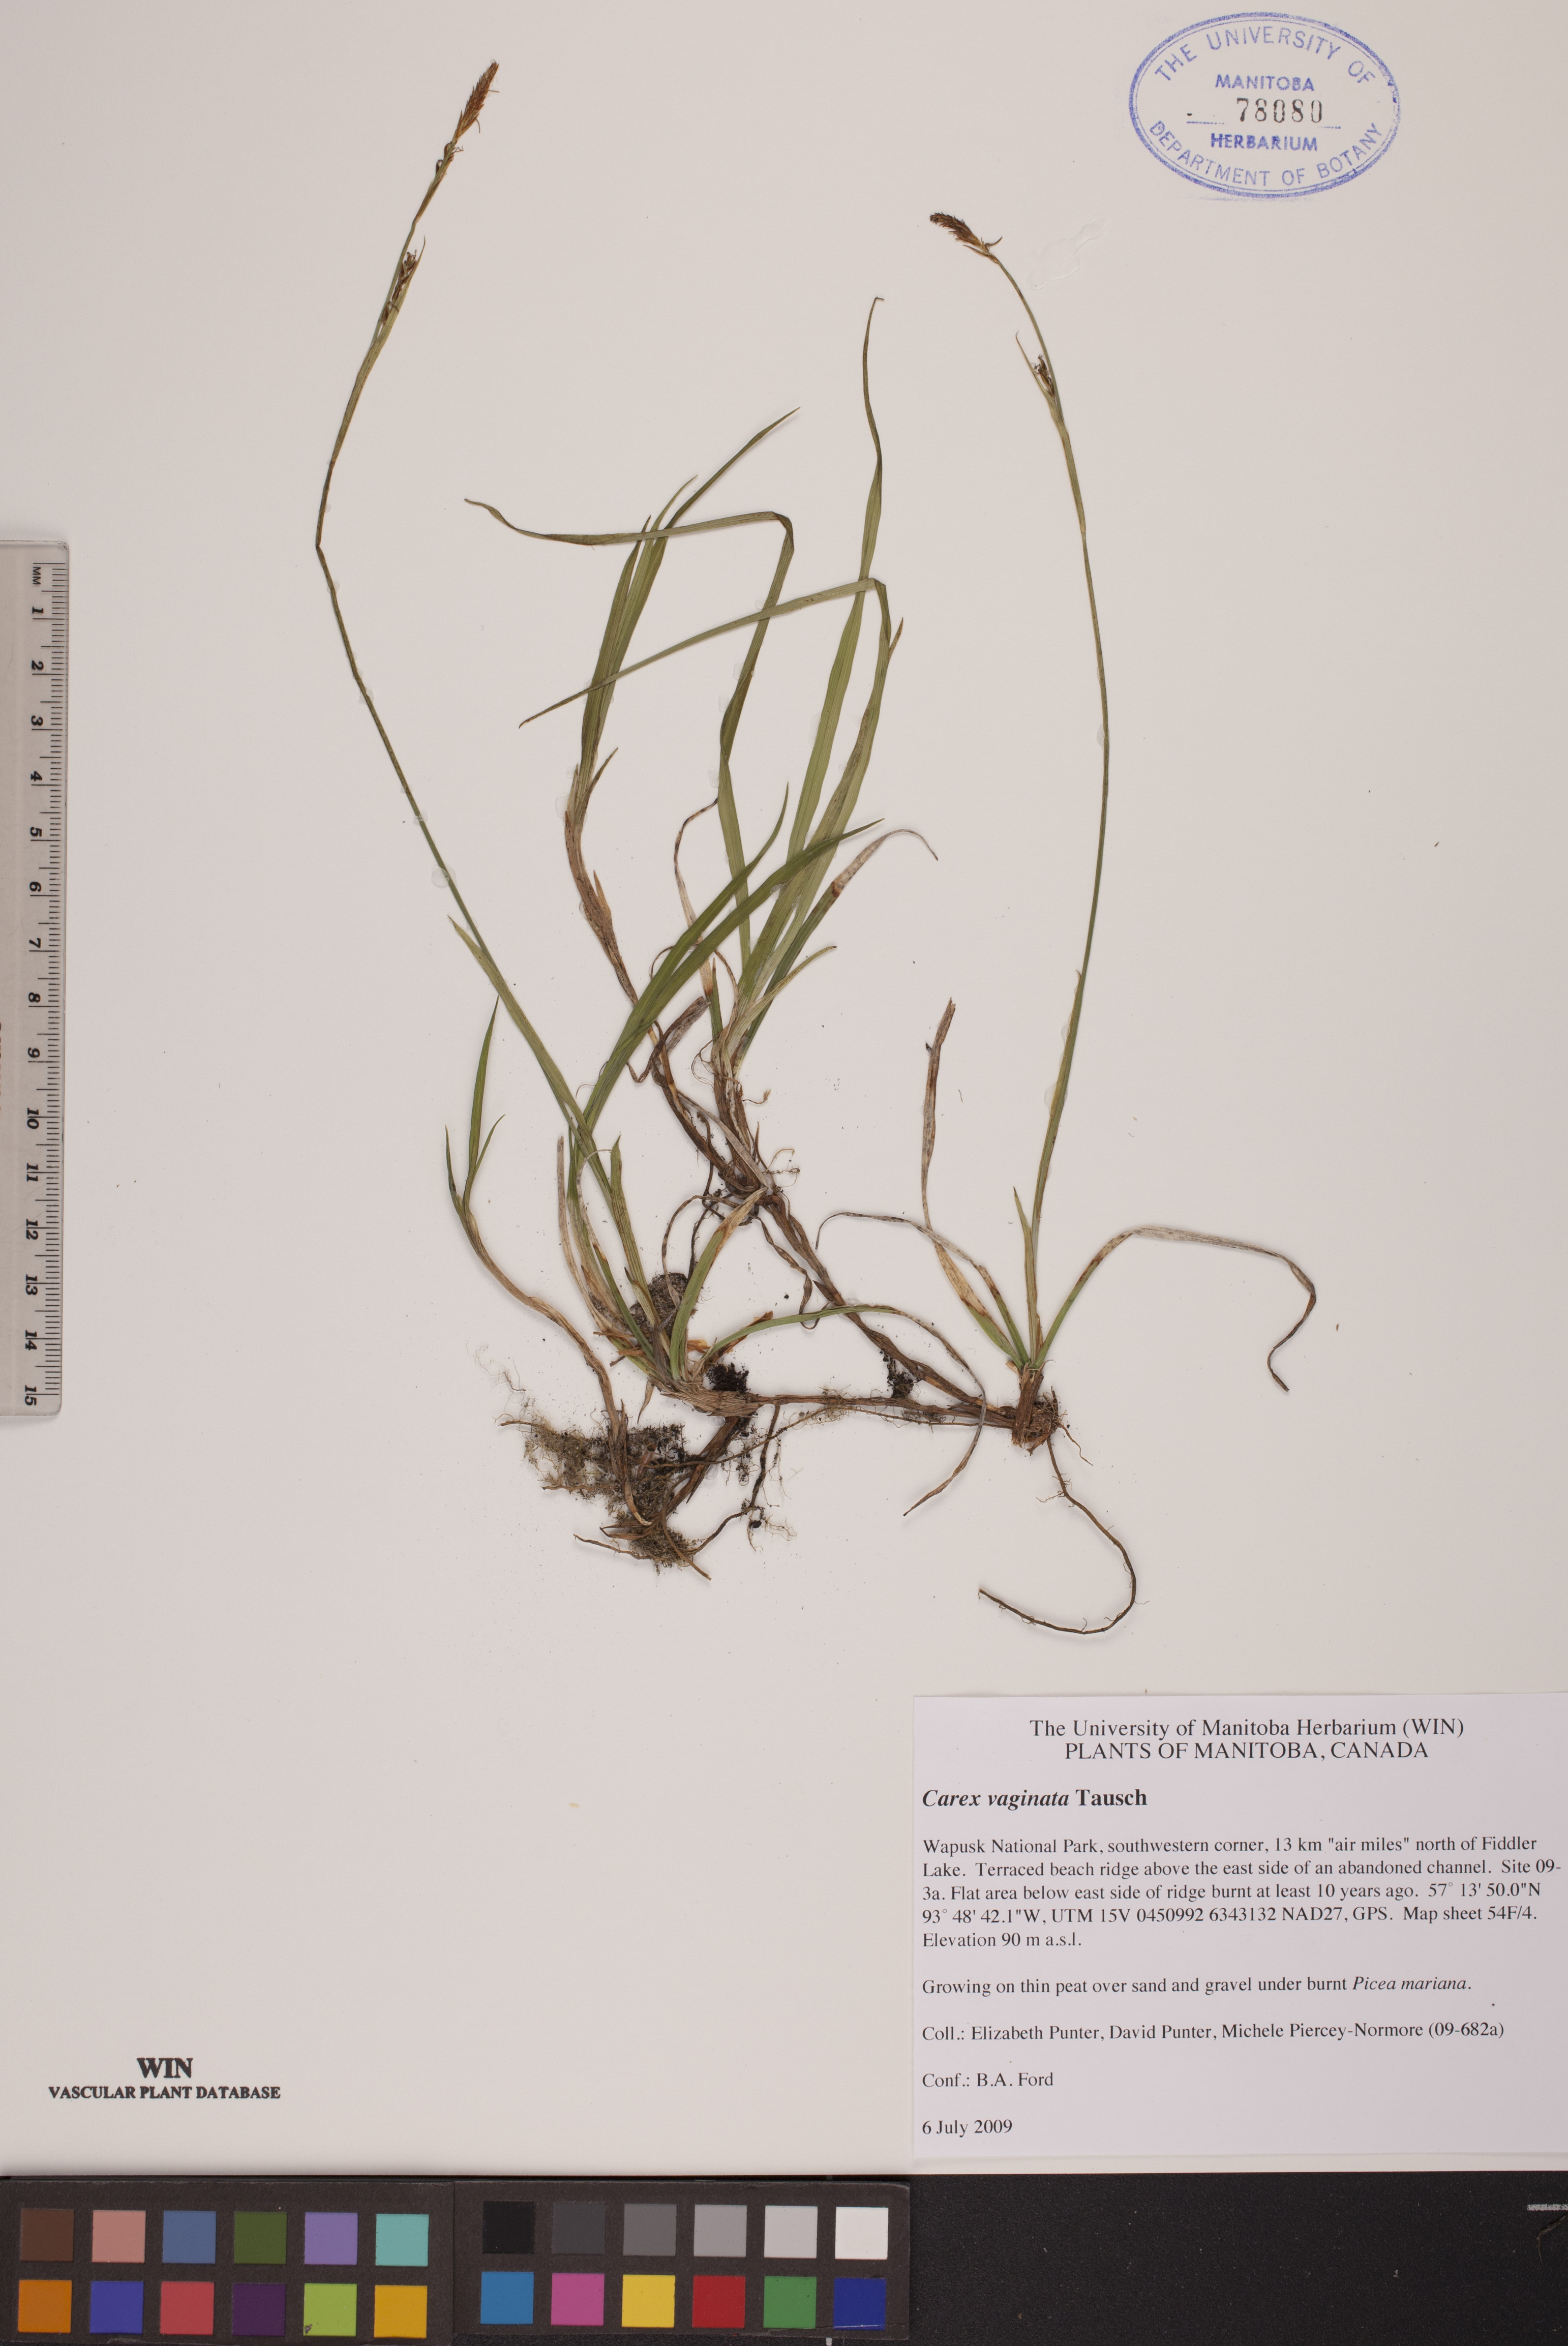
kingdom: Plantae
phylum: Tracheophyta
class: Liliopsida
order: Poales
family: Cyperaceae
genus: Carex
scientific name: Carex vaginata
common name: Sheathed sedge
